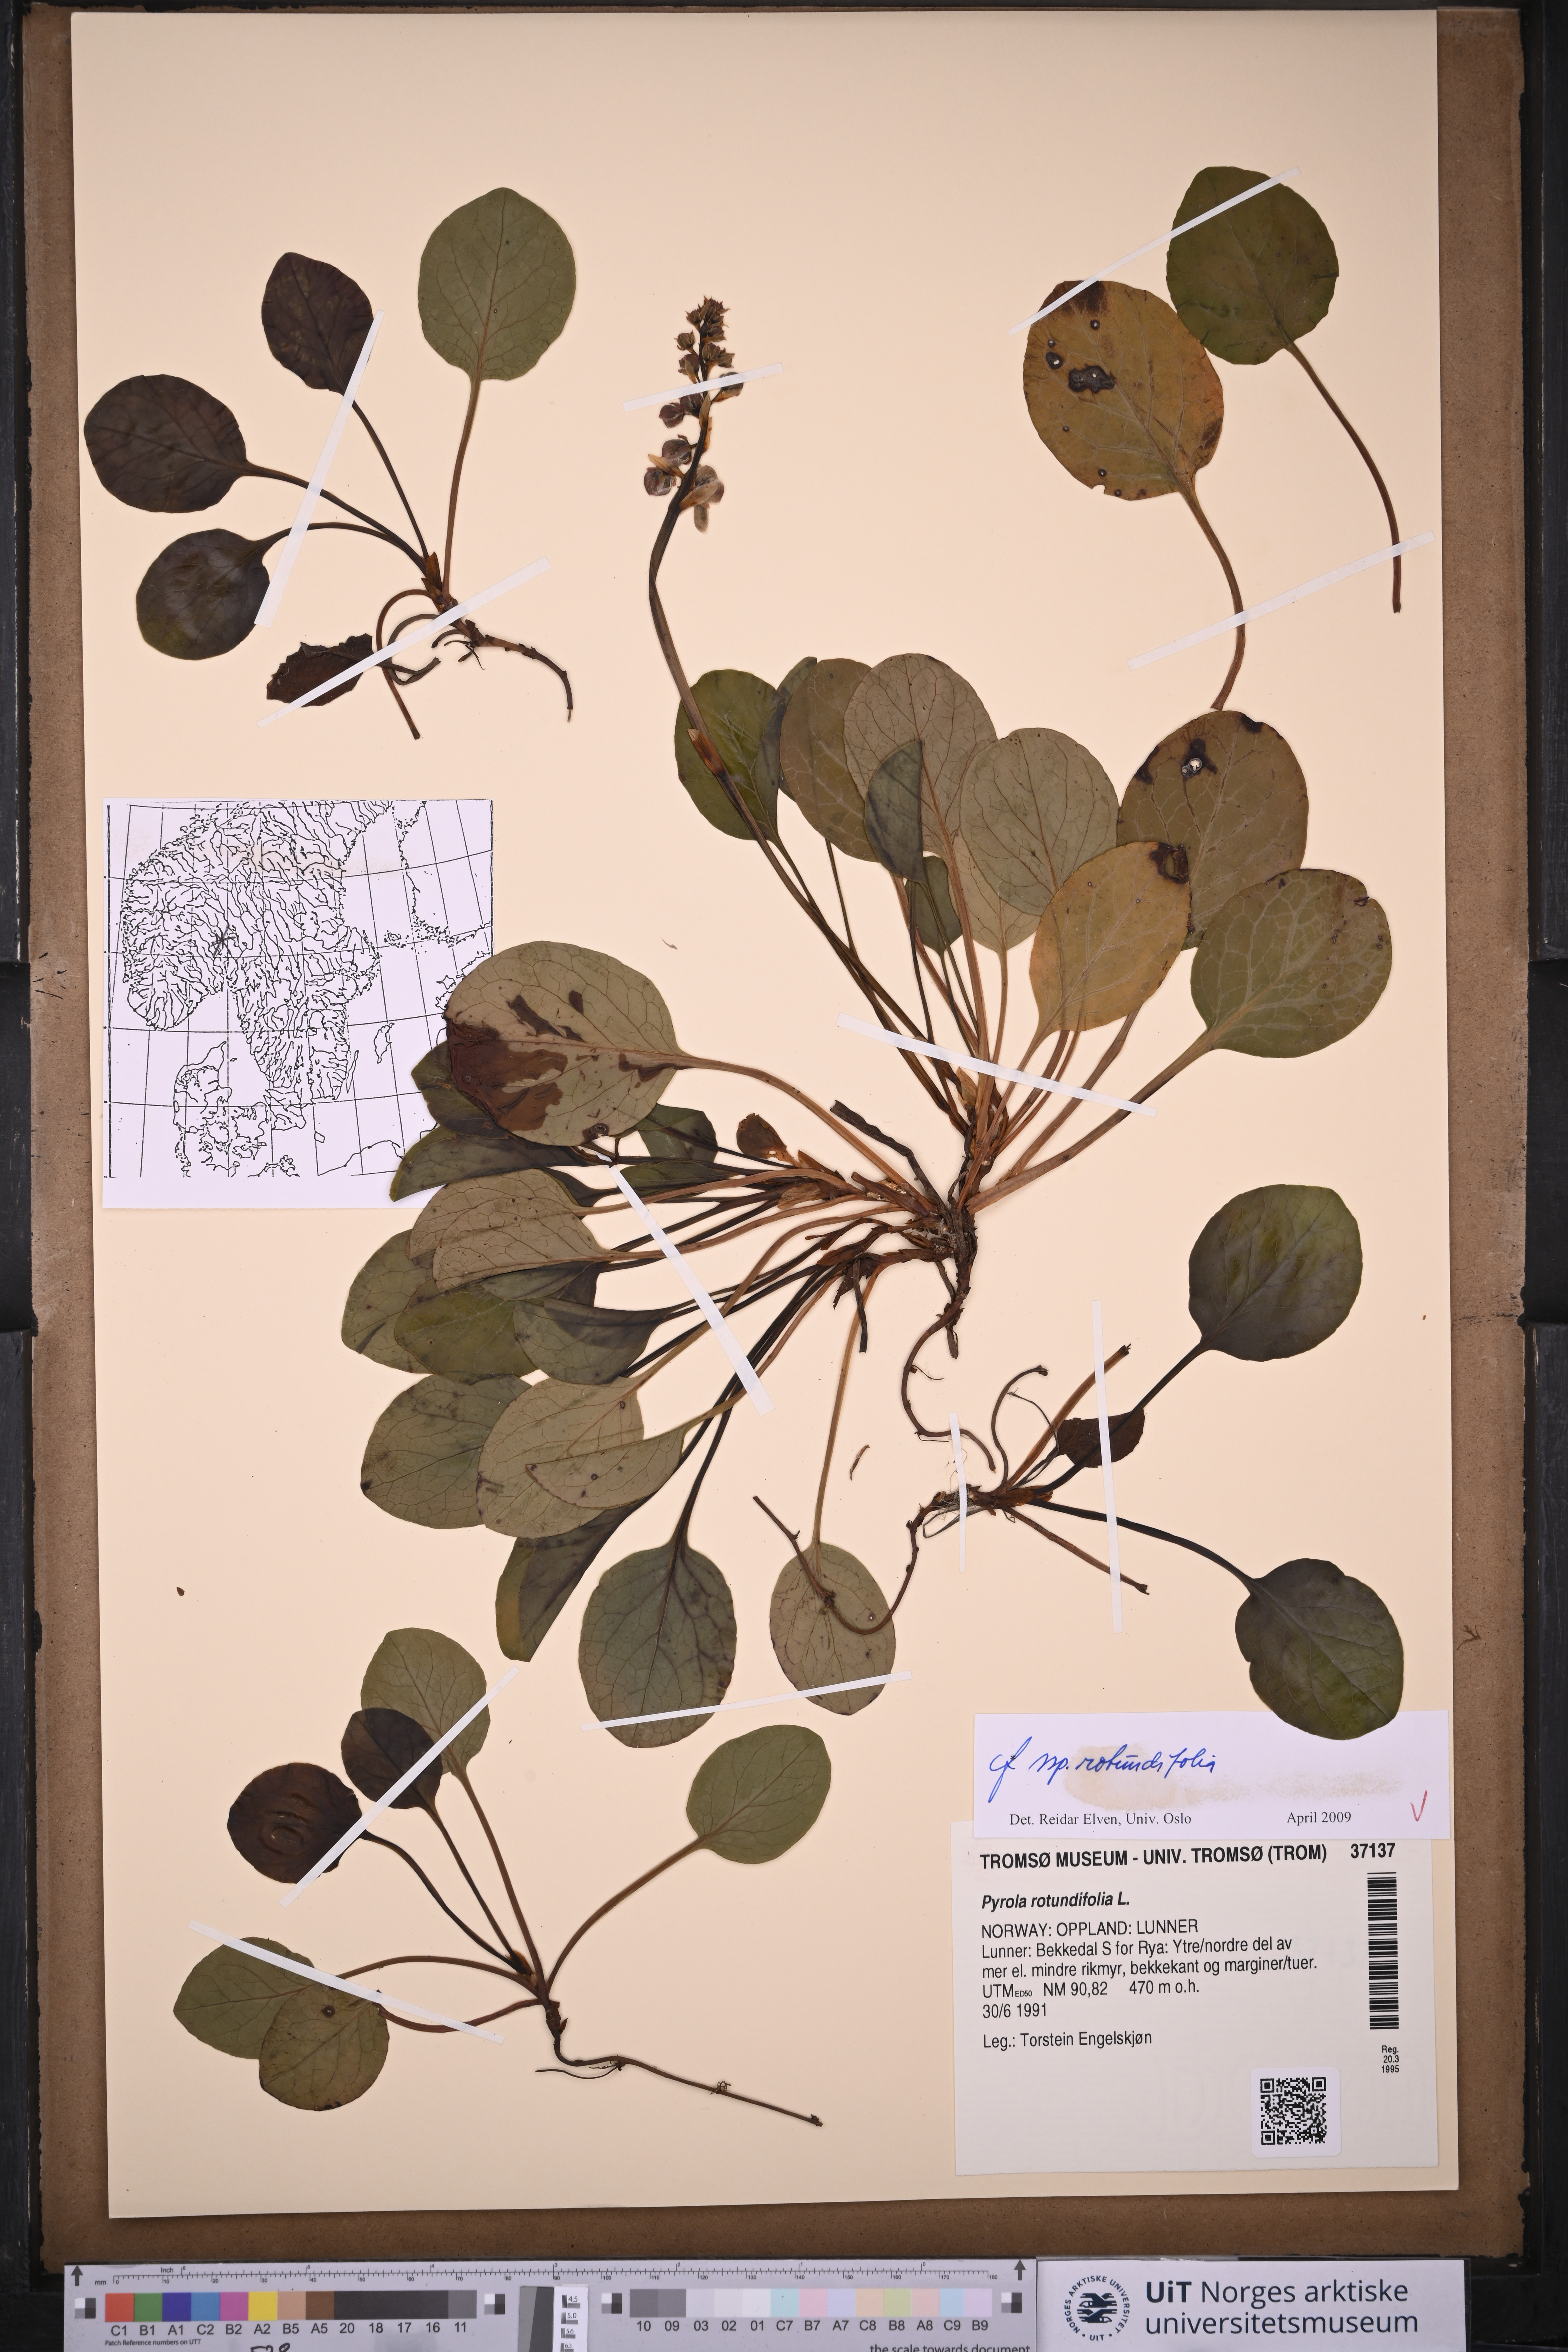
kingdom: Plantae
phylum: Tracheophyta
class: Magnoliopsida
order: Ericales
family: Ericaceae
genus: Pyrola
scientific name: Pyrola rotundifolia
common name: Round-leaved wintergreen
